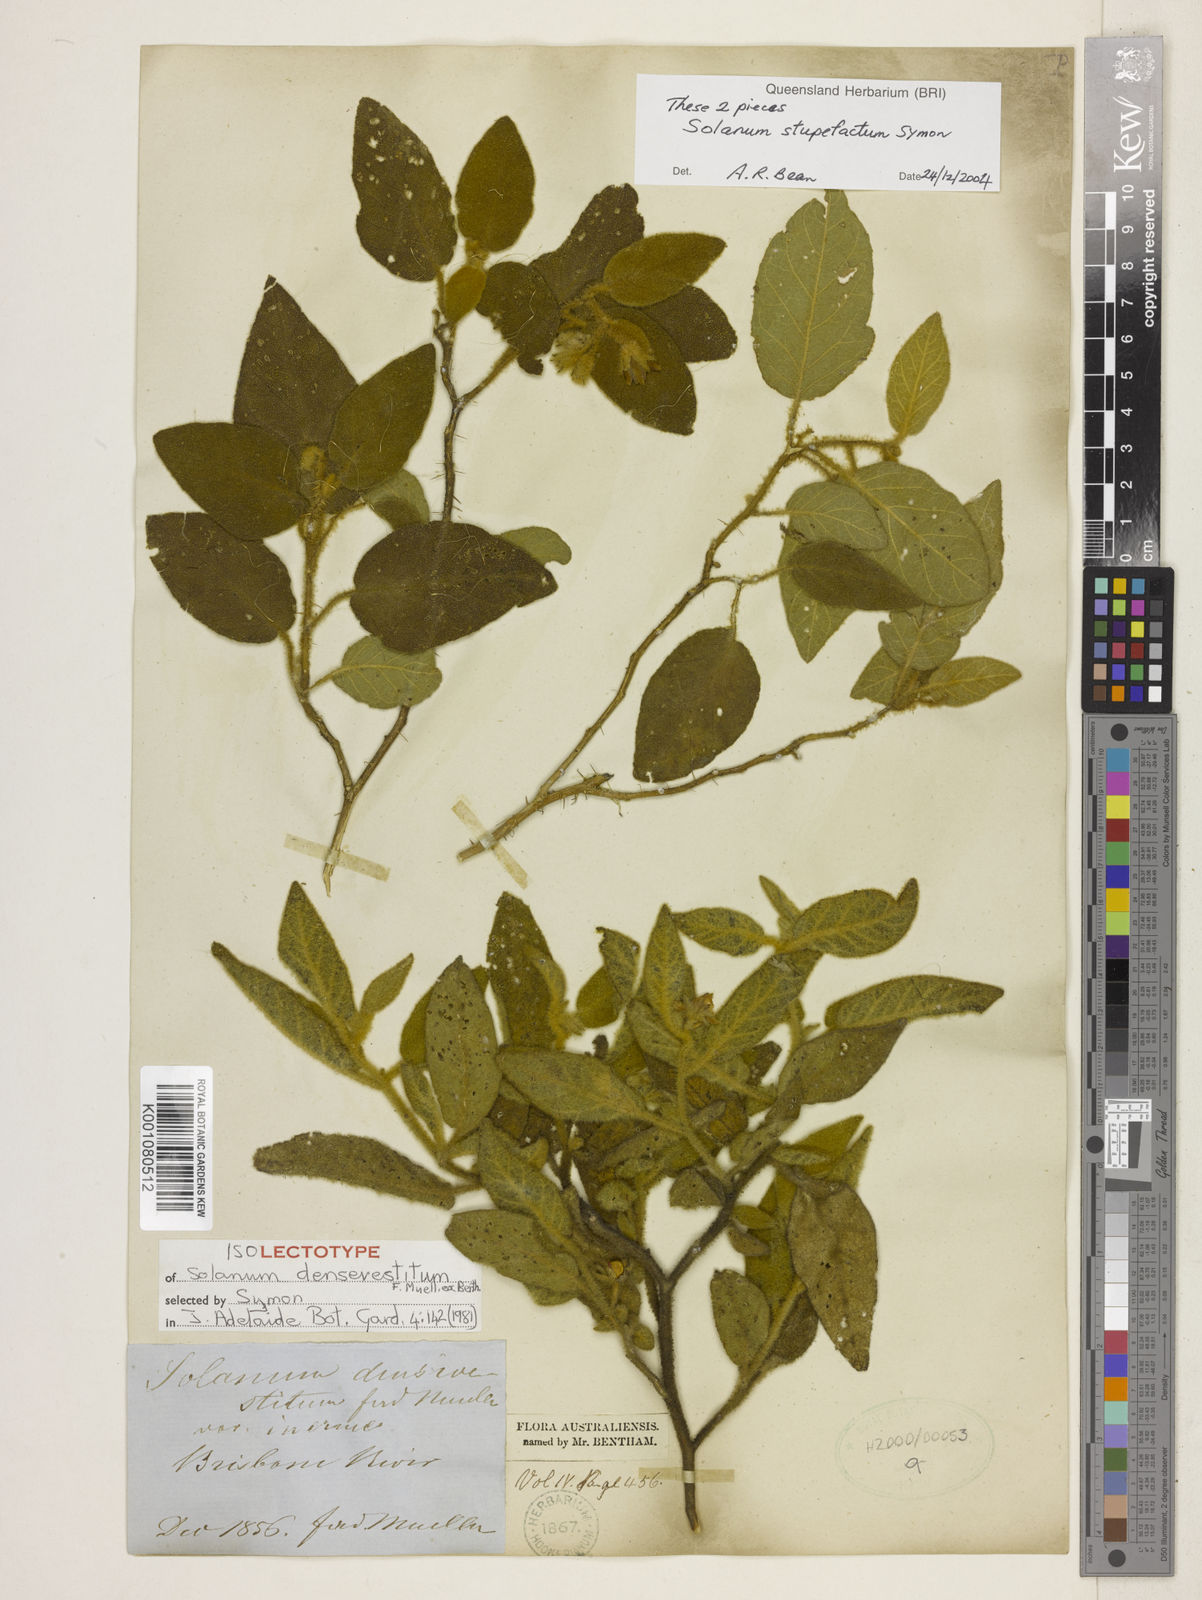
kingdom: Plantae
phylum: Tracheophyta
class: Magnoliopsida
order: Solanales
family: Solanaceae
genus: Solanum
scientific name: Solanum densevestitum
